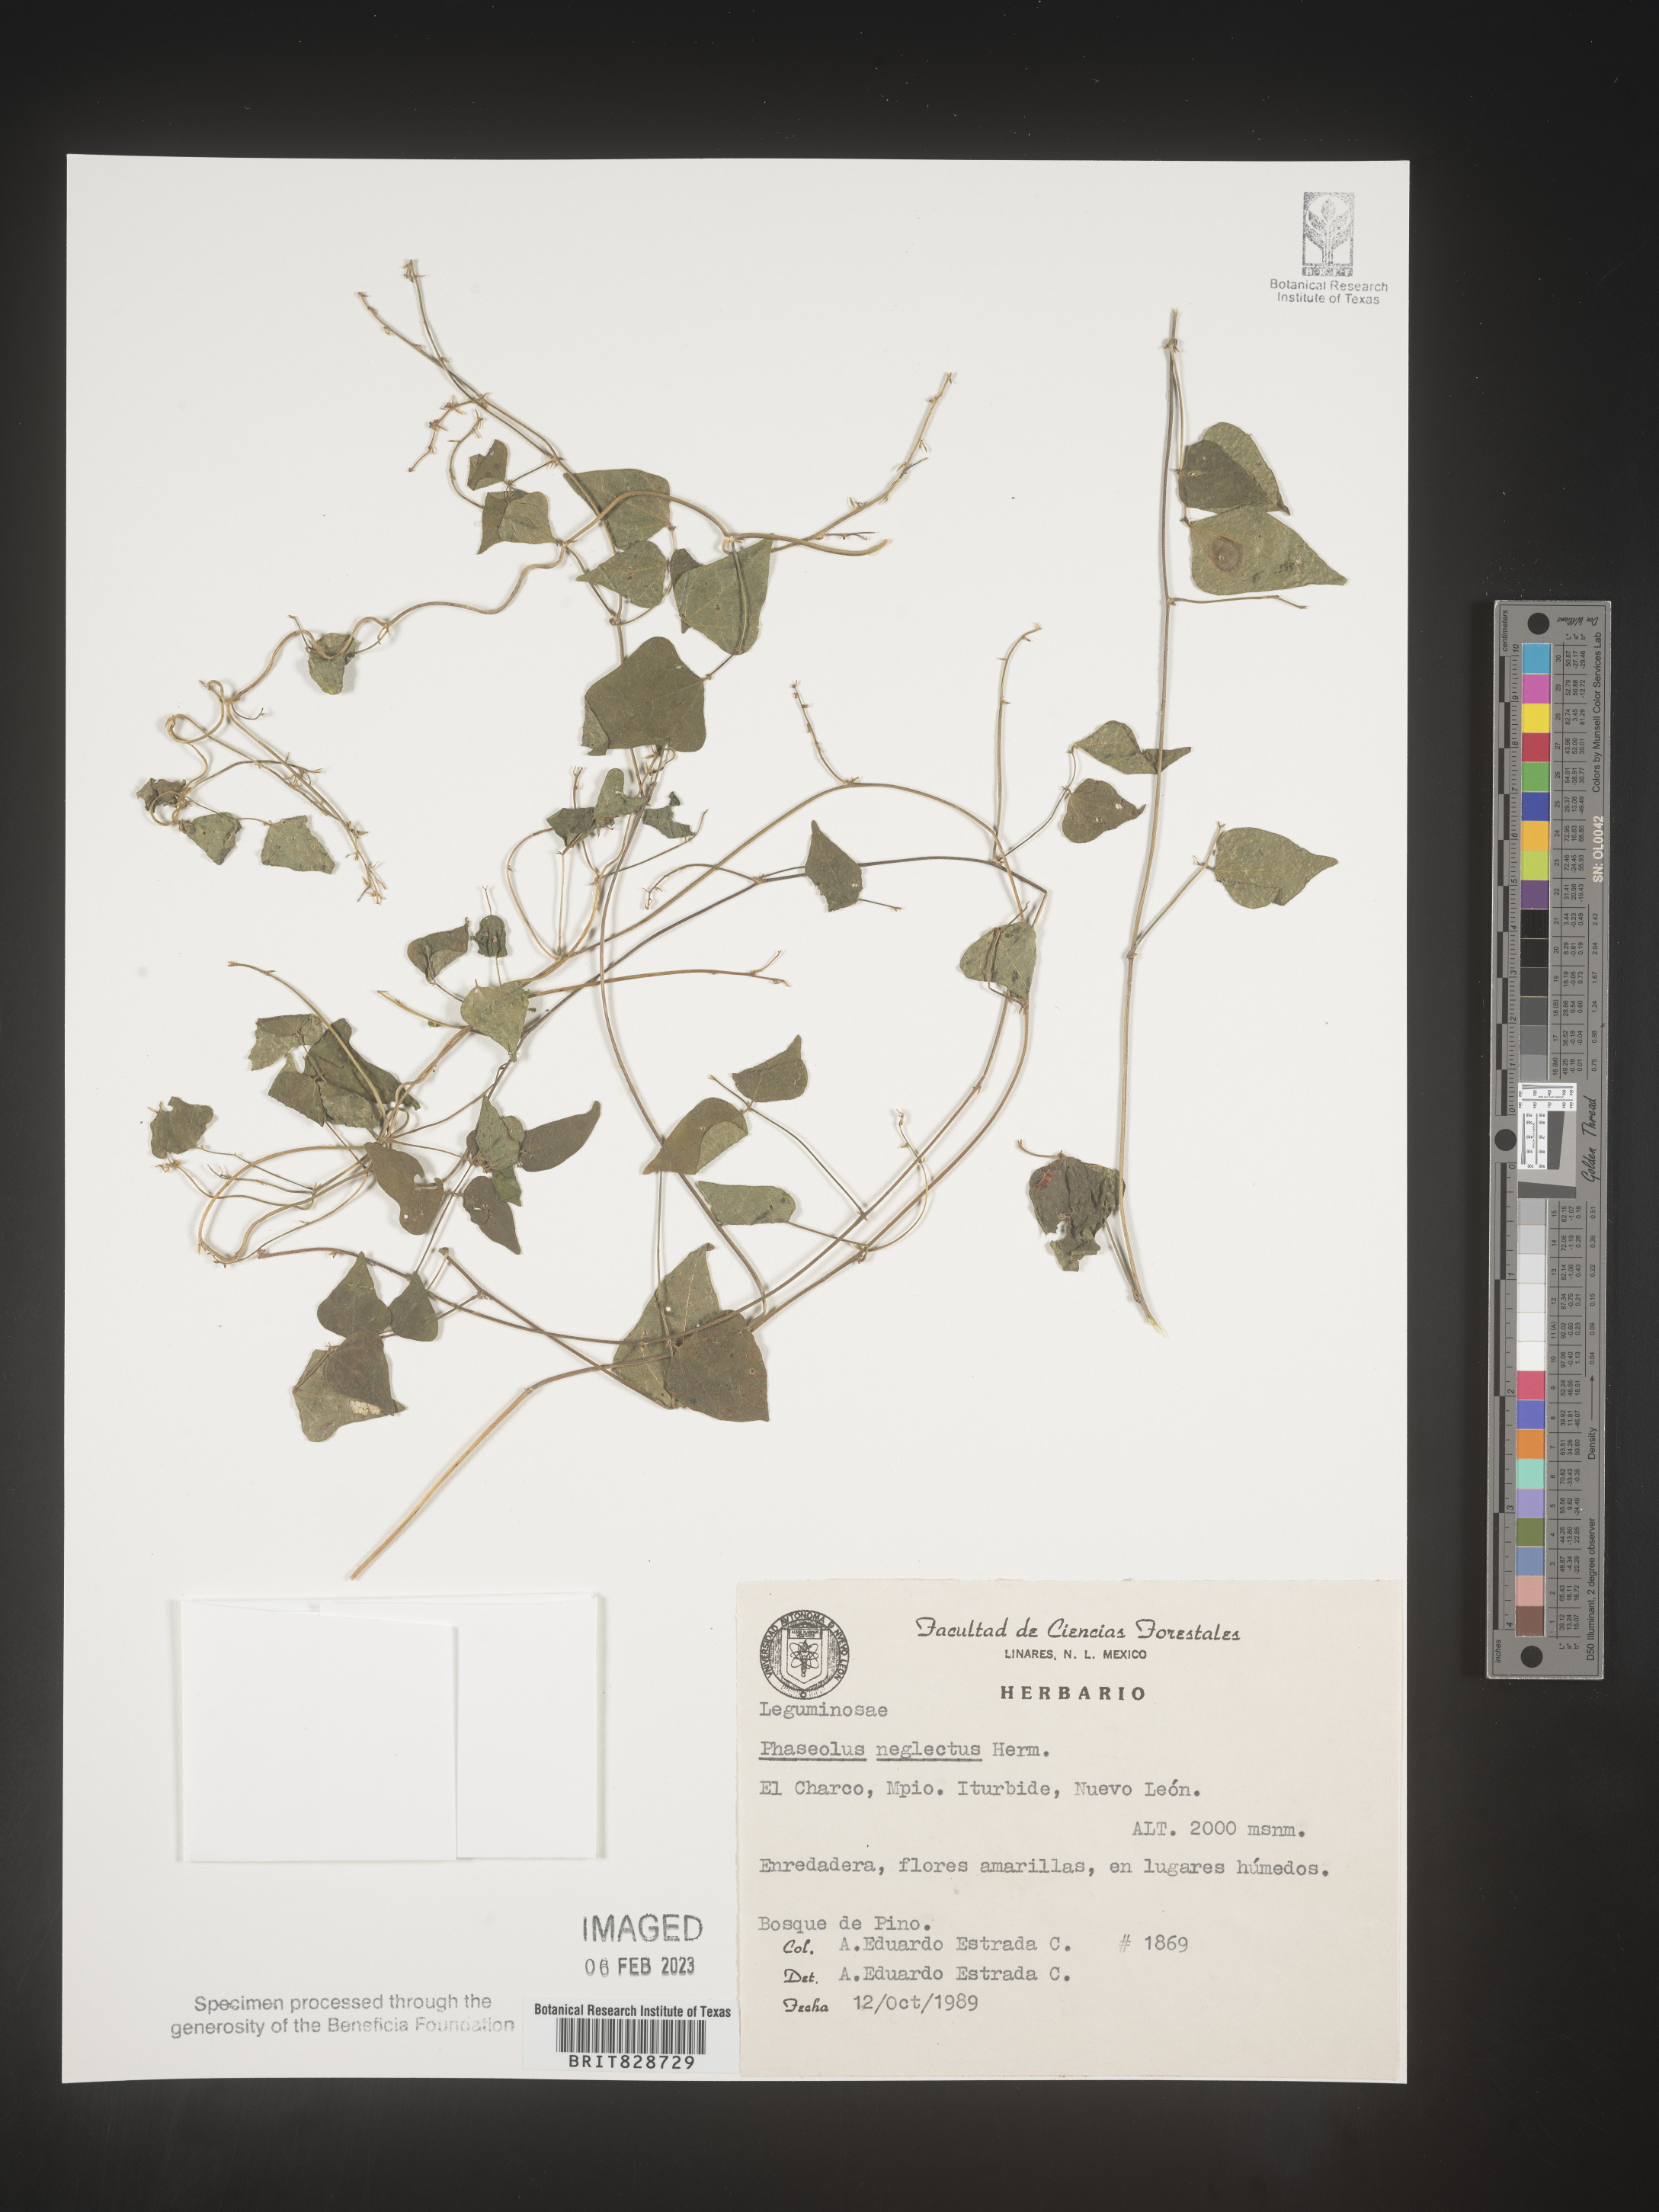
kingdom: Plantae
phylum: Tracheophyta
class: Magnoliopsida
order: Fabales
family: Fabaceae
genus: Phaseolus
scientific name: Phaseolus
